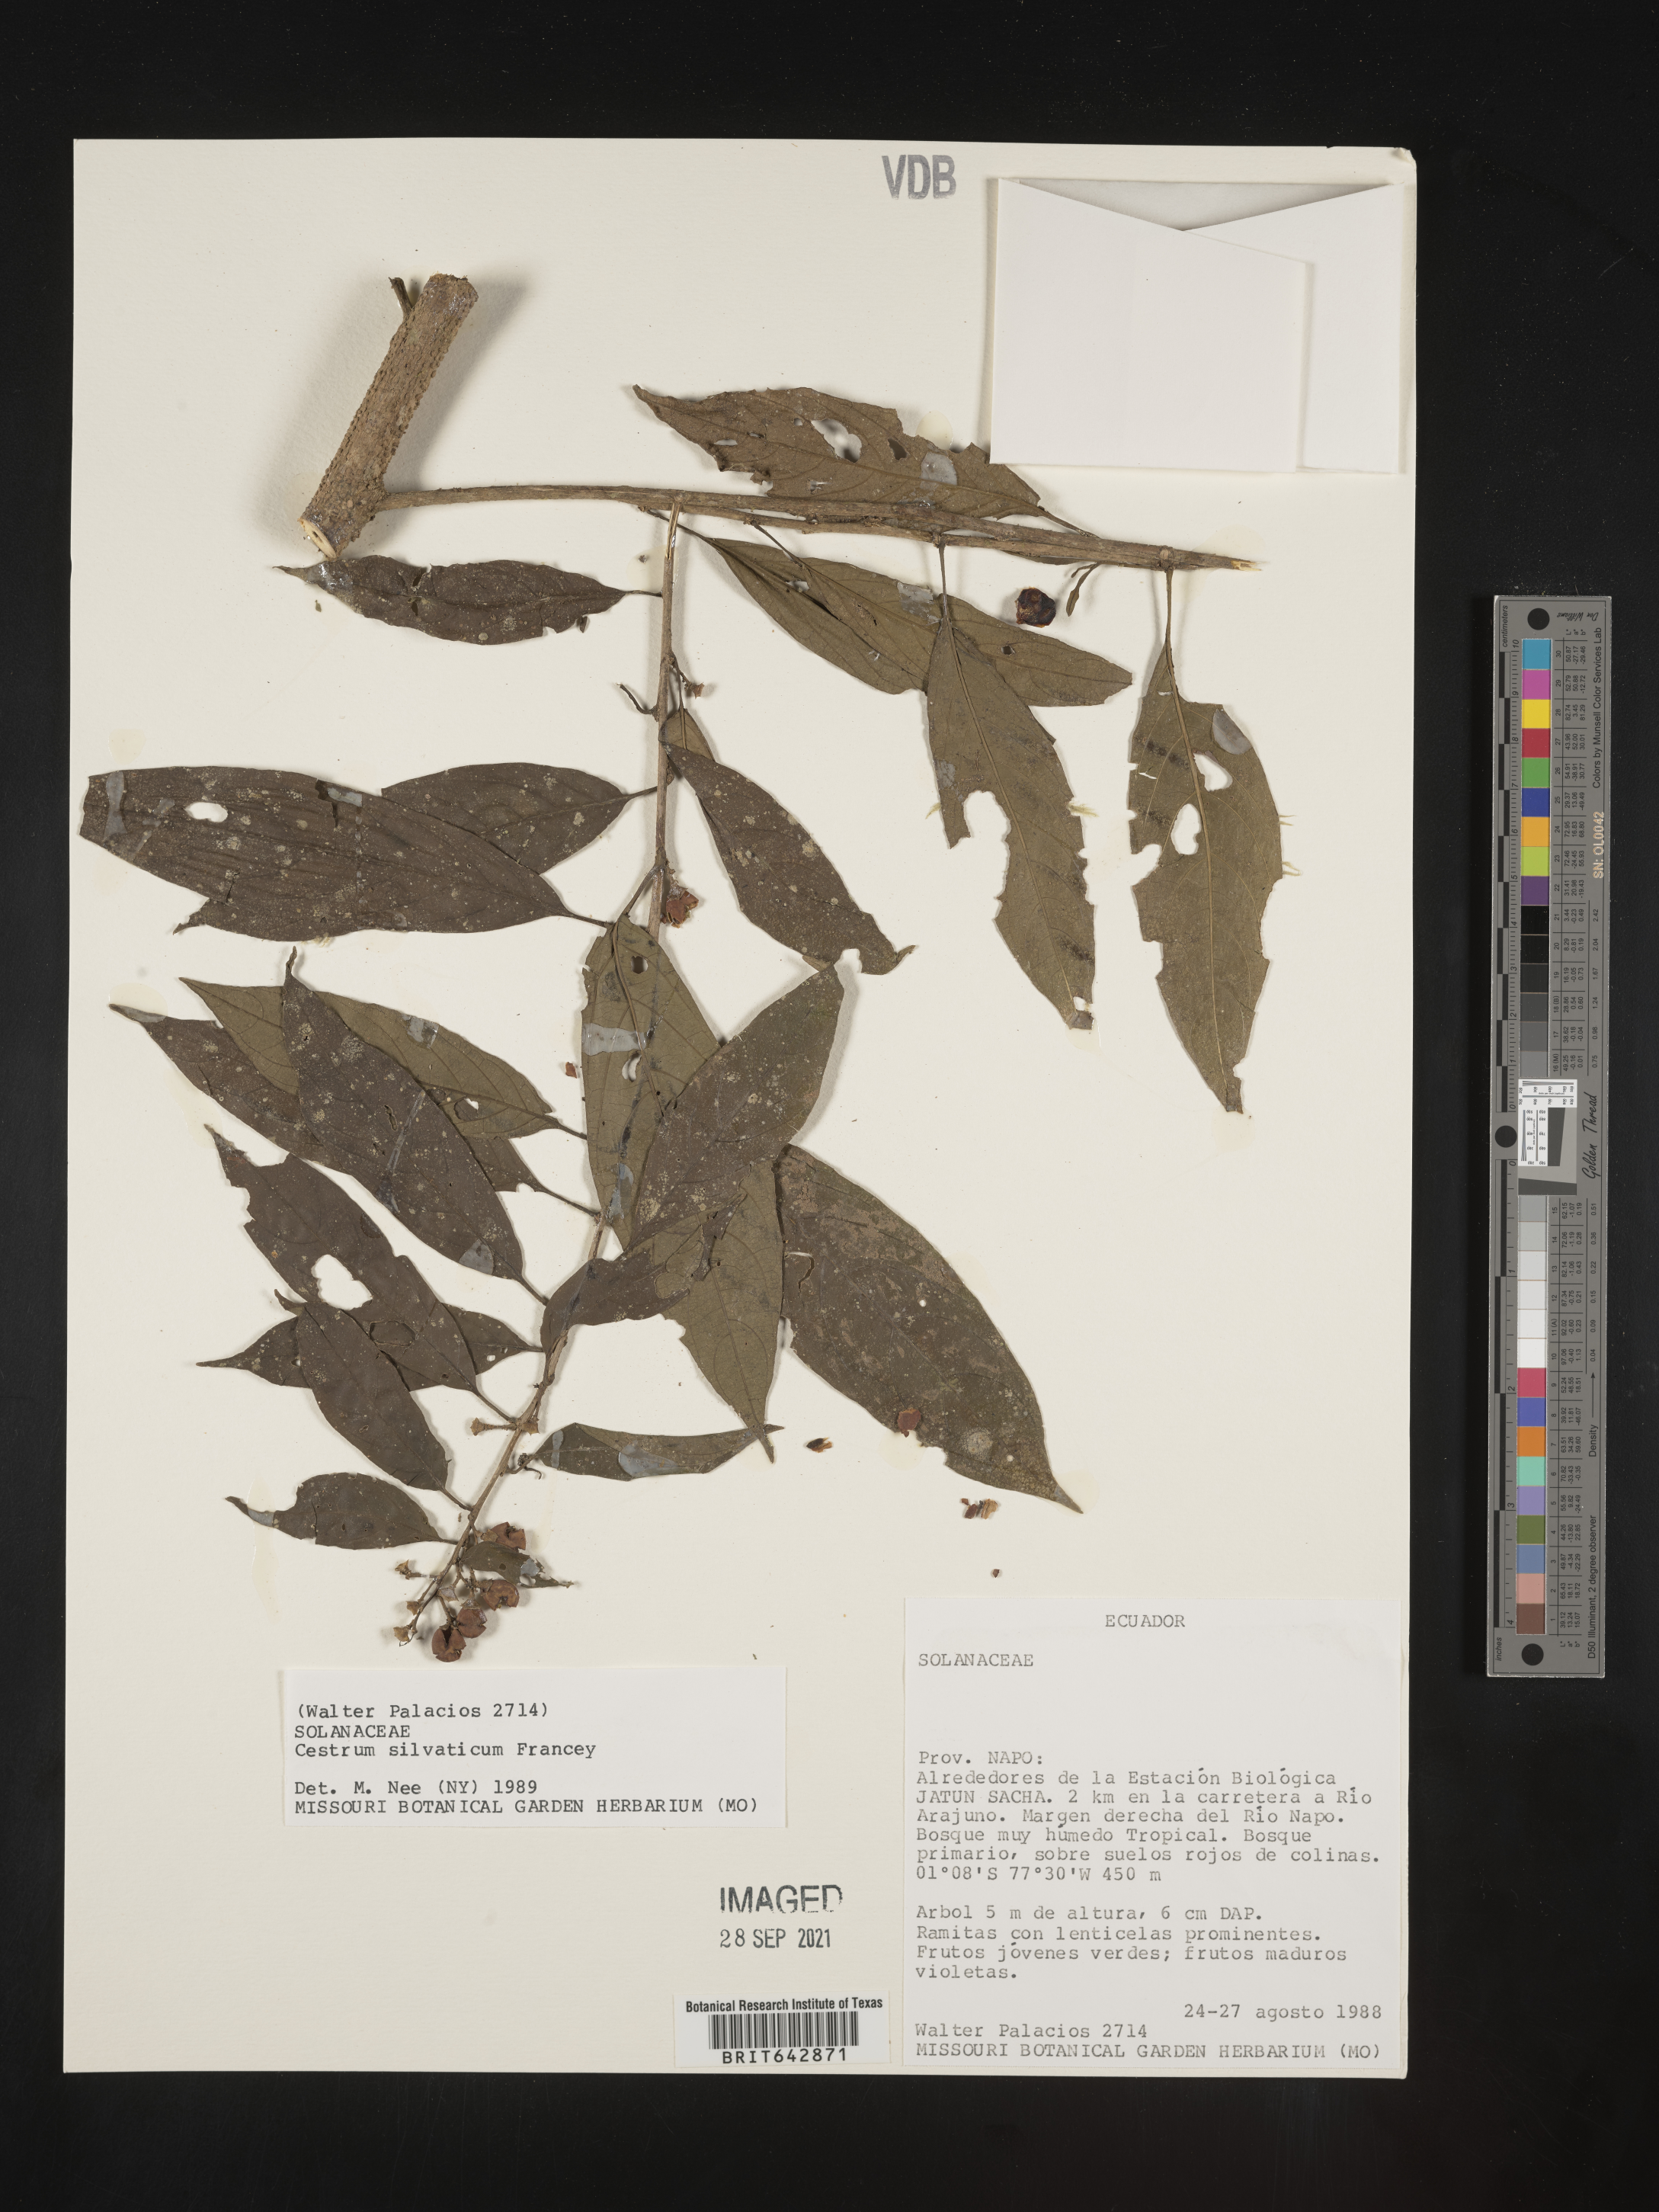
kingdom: Plantae
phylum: Tracheophyta
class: Magnoliopsida
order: Solanales
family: Solanaceae
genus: Cestrum
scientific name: Cestrum
